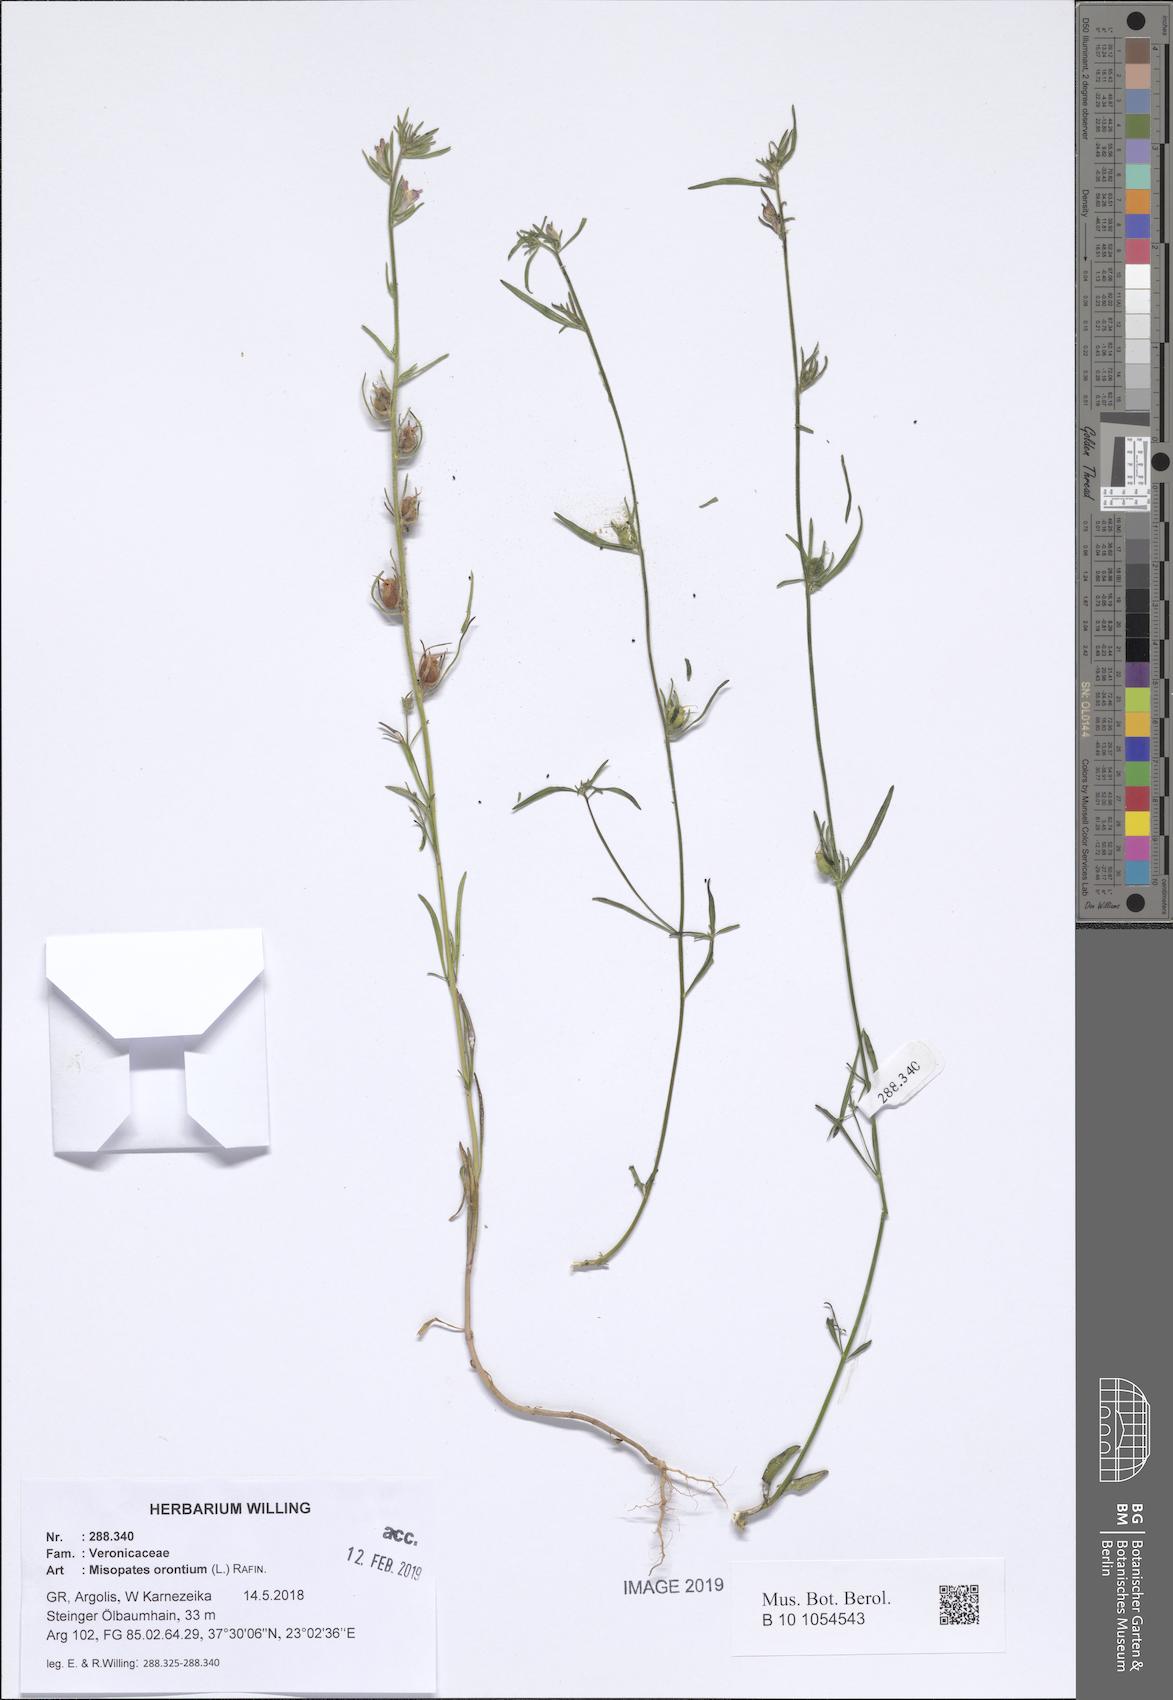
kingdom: Plantae
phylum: Tracheophyta
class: Magnoliopsida
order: Lamiales
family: Plantaginaceae
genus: Misopates
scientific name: Misopates orontium
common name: Weasel's-snout
